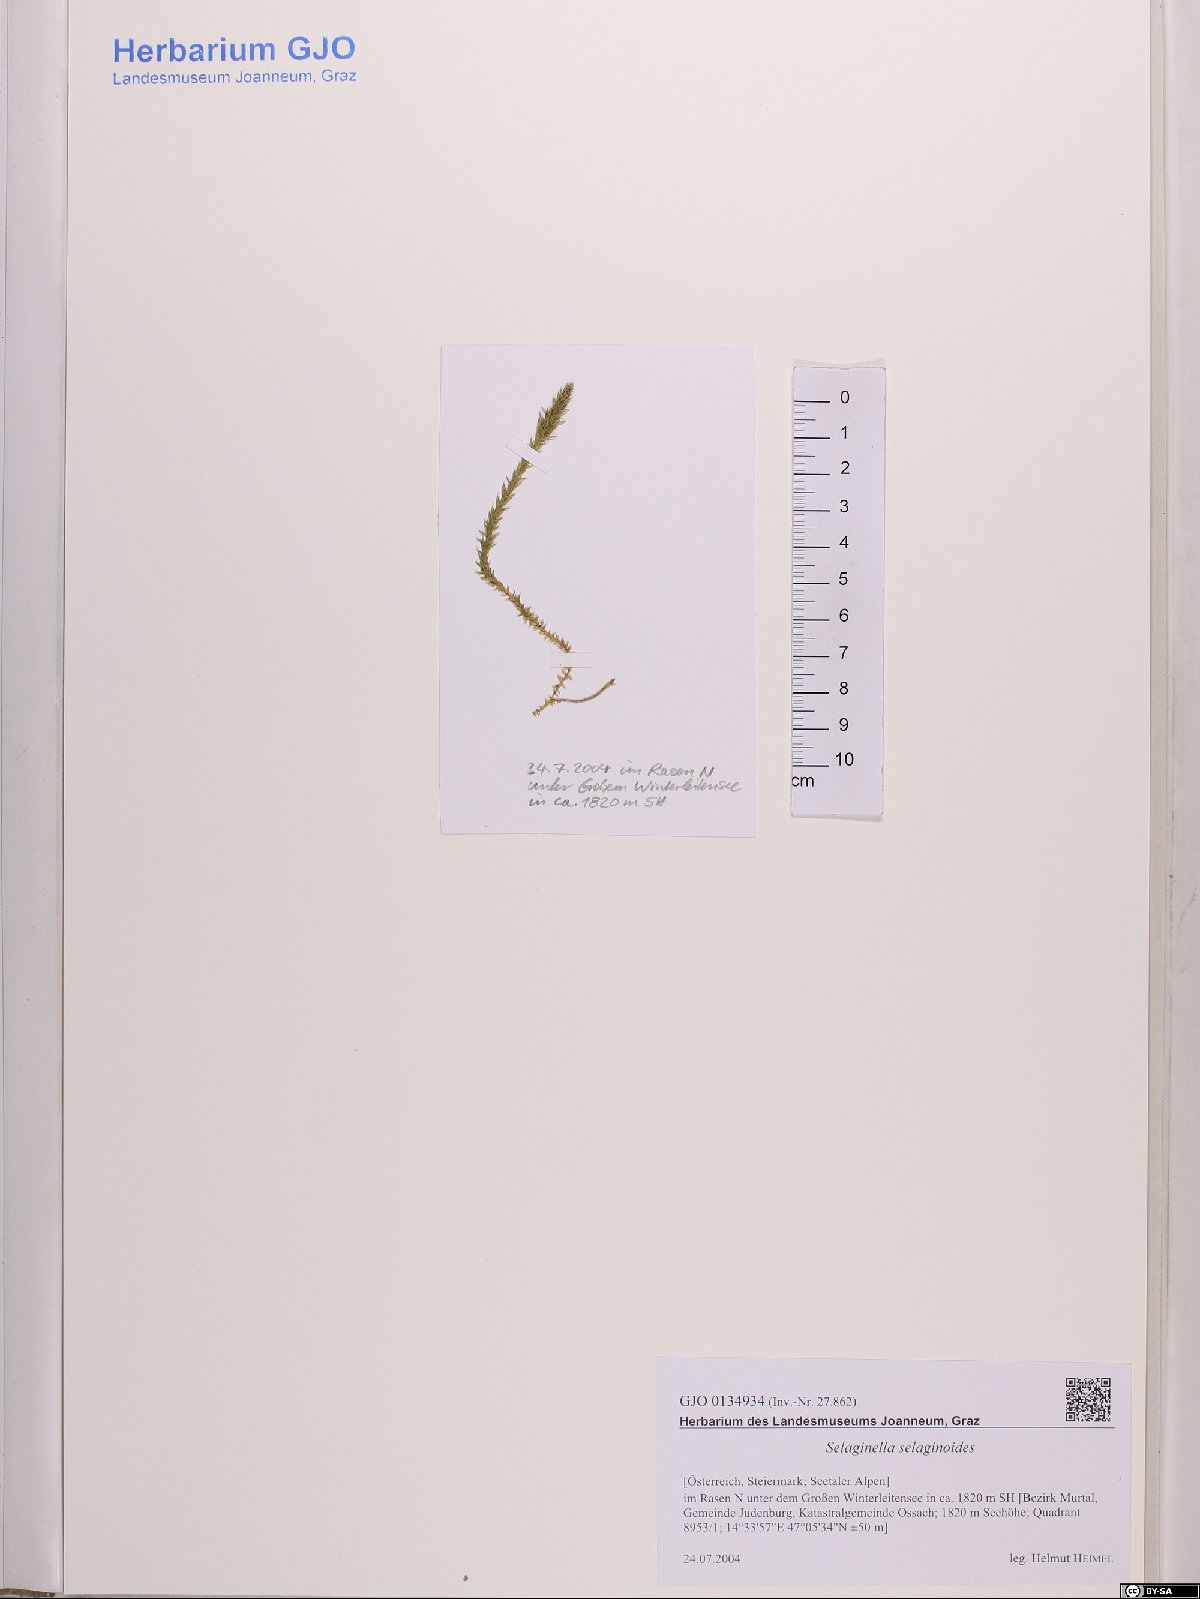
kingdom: Plantae
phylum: Tracheophyta
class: Lycopodiopsida
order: Selaginellales
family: Selaginellaceae
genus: Selaginella
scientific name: Selaginella selaginoides
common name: Prickly mountain-moss
